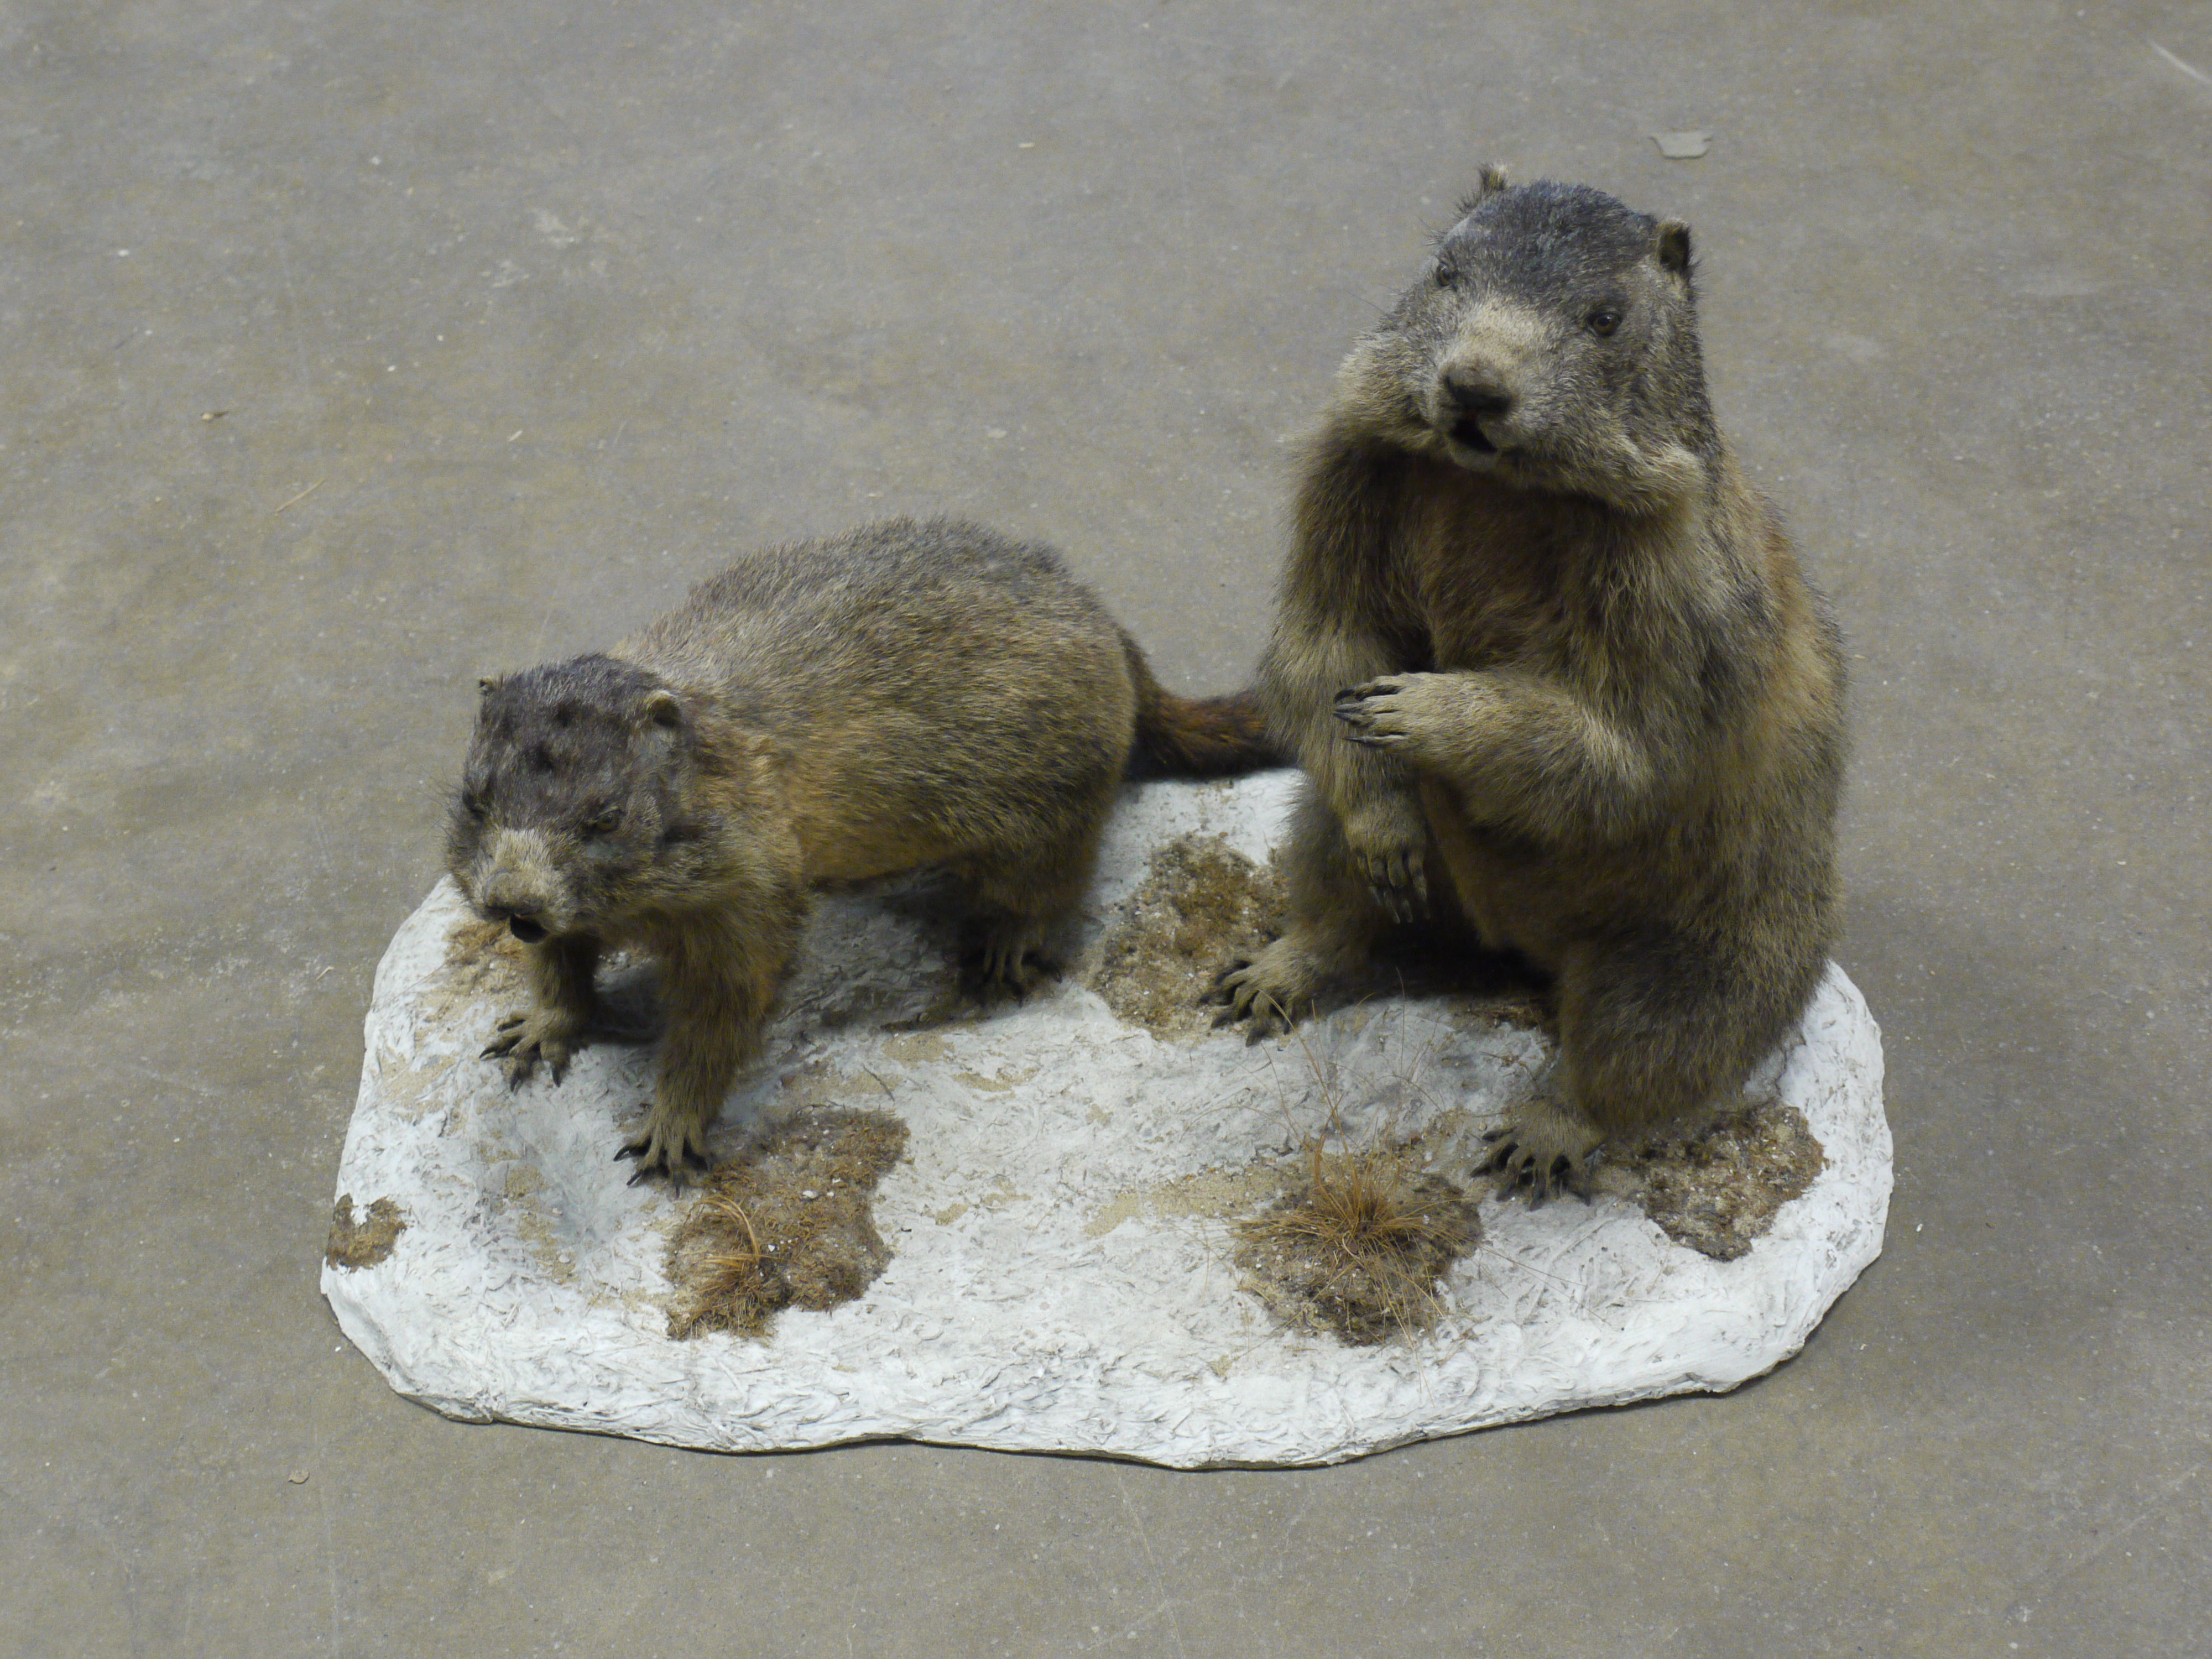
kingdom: Animalia
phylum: Chordata
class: Mammalia
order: Rodentia
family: Sciuridae
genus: Marmota
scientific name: Marmota marmota
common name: Alpine marmot
